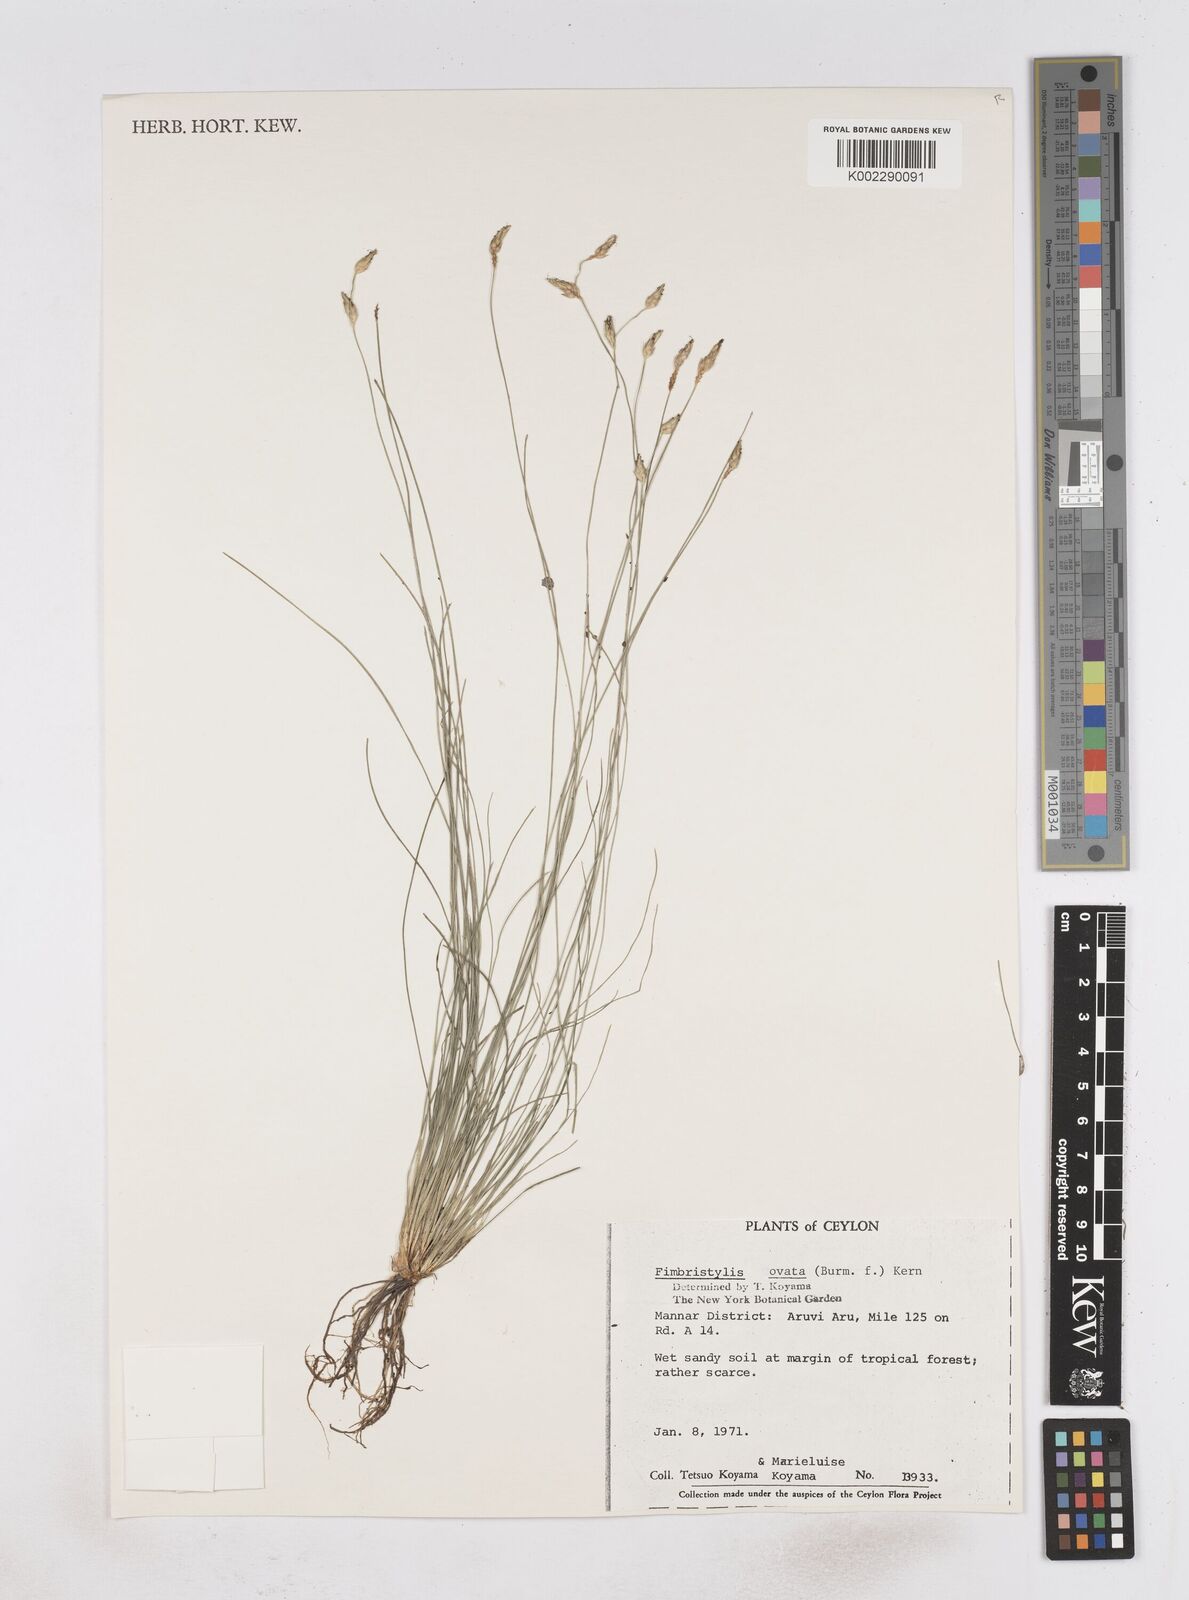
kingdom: Plantae
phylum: Tracheophyta
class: Liliopsida
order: Poales
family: Cyperaceae
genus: Abildgaardia
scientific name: Abildgaardia ovata
